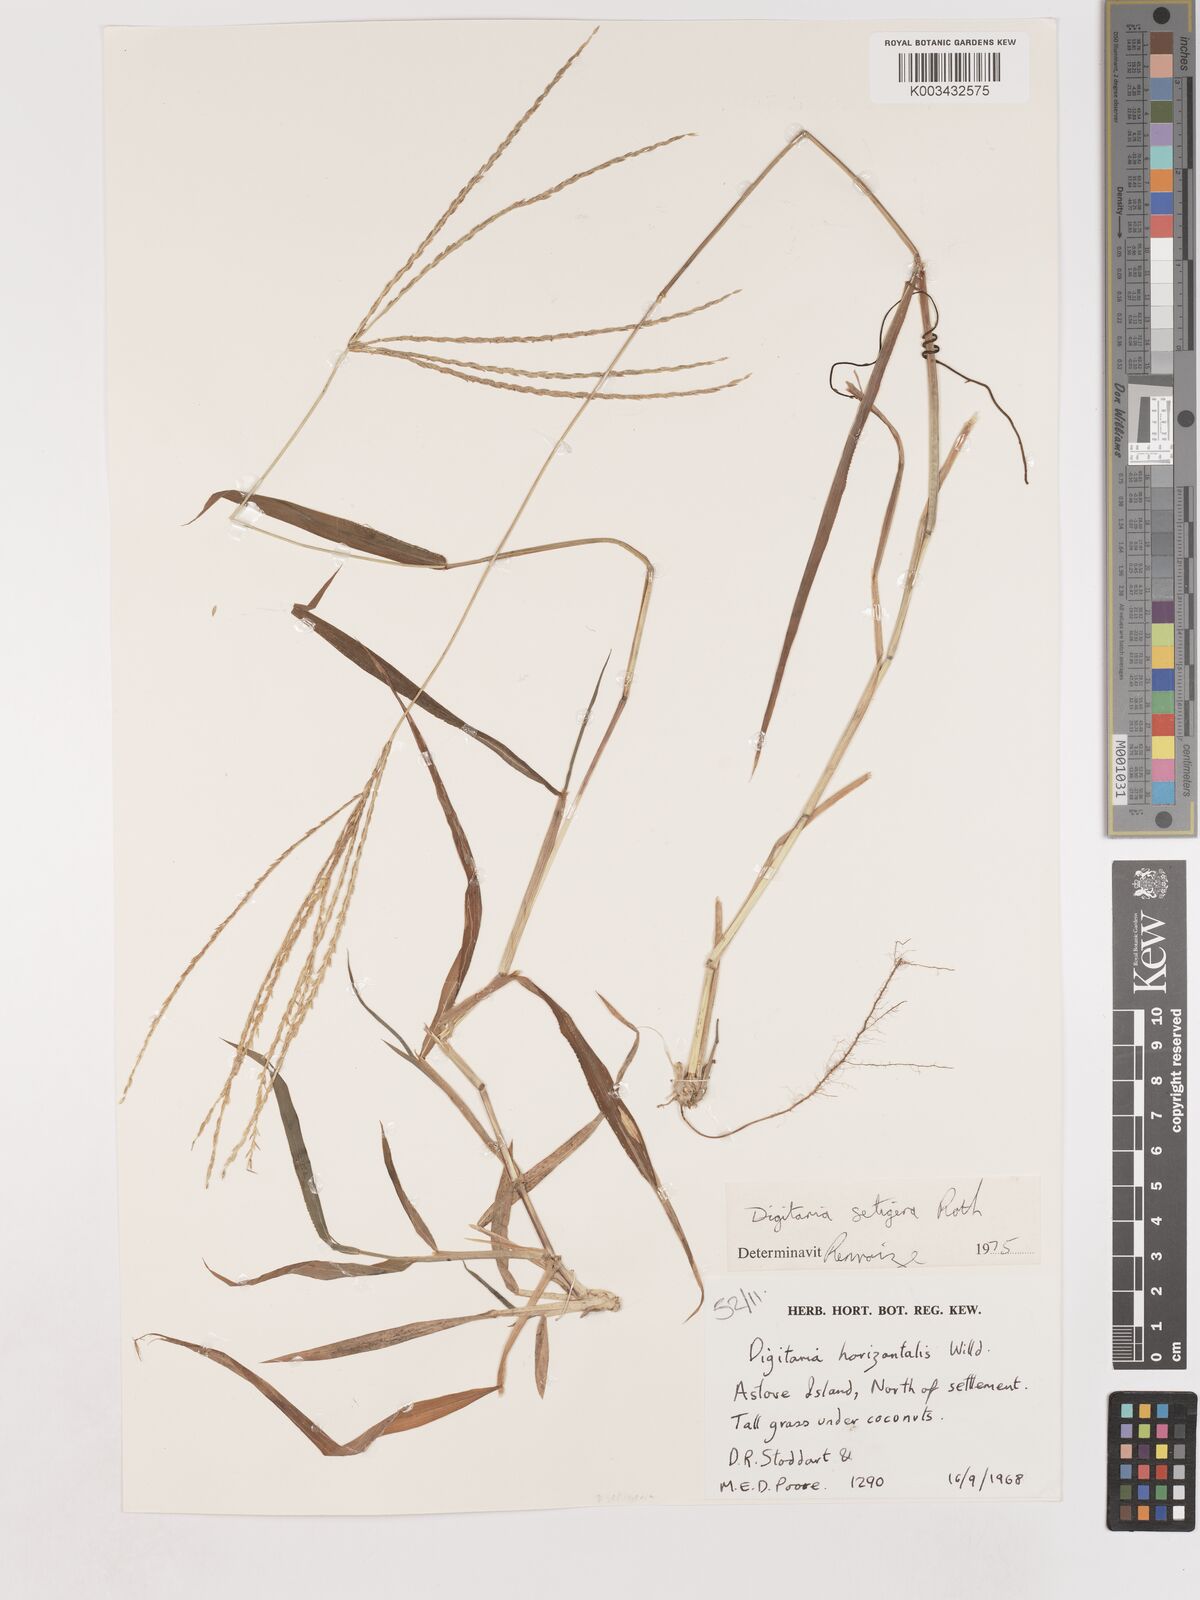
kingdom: Plantae
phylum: Tracheophyta
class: Liliopsida
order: Poales
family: Poaceae
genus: Digitaria
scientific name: Digitaria setigera
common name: East indian crabgrass
